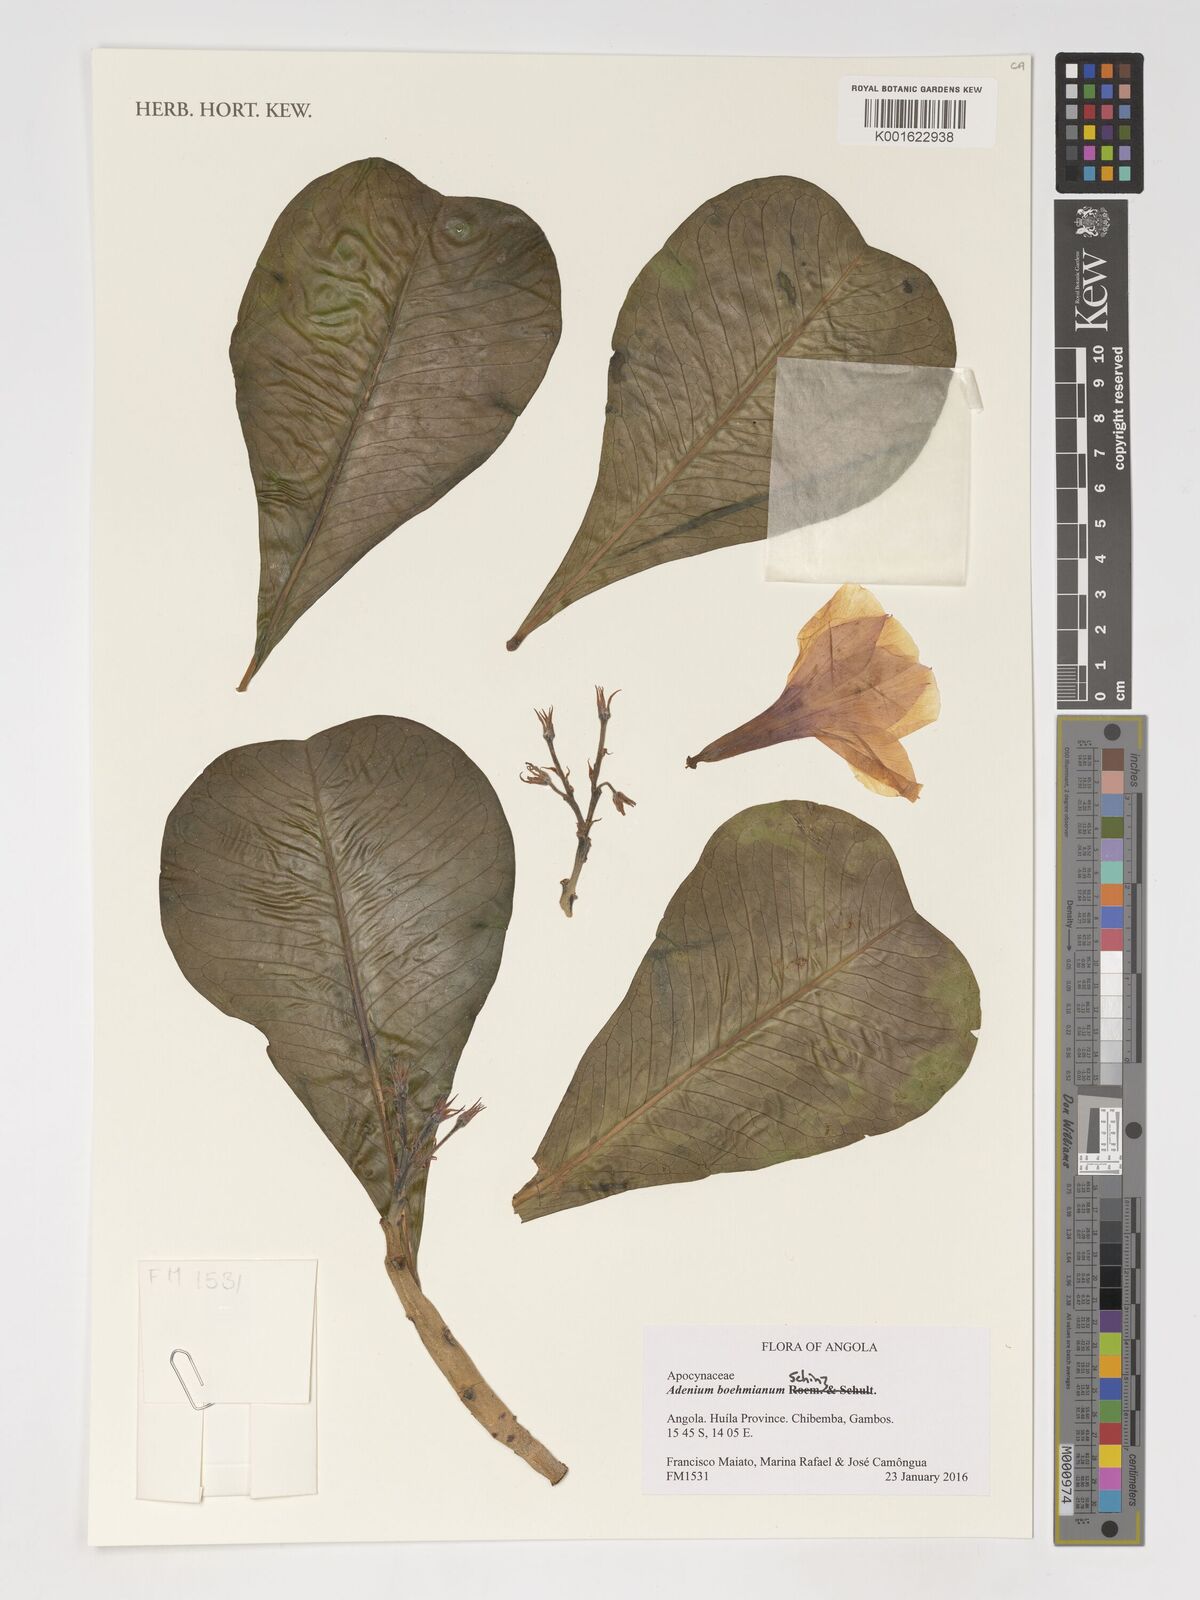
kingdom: Plantae
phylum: Tracheophyta
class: Magnoliopsida
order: Gentianales
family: Apocynaceae
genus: Adenium
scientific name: Adenium obesum
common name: Desert-rose
